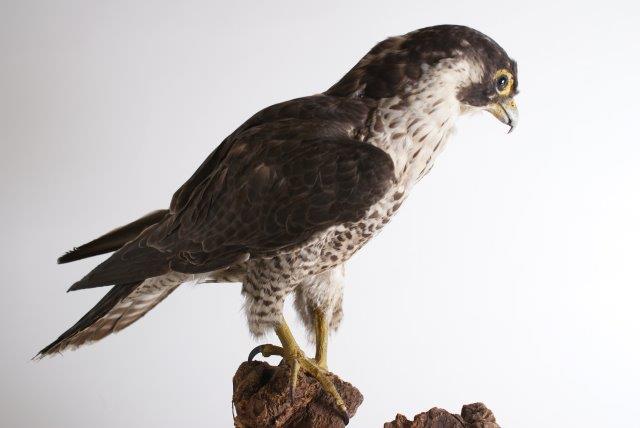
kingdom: Animalia
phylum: Chordata
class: Aves
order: Falconiformes
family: Falconidae
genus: Falco
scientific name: Falco mexicanus
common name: Prairie falcon
